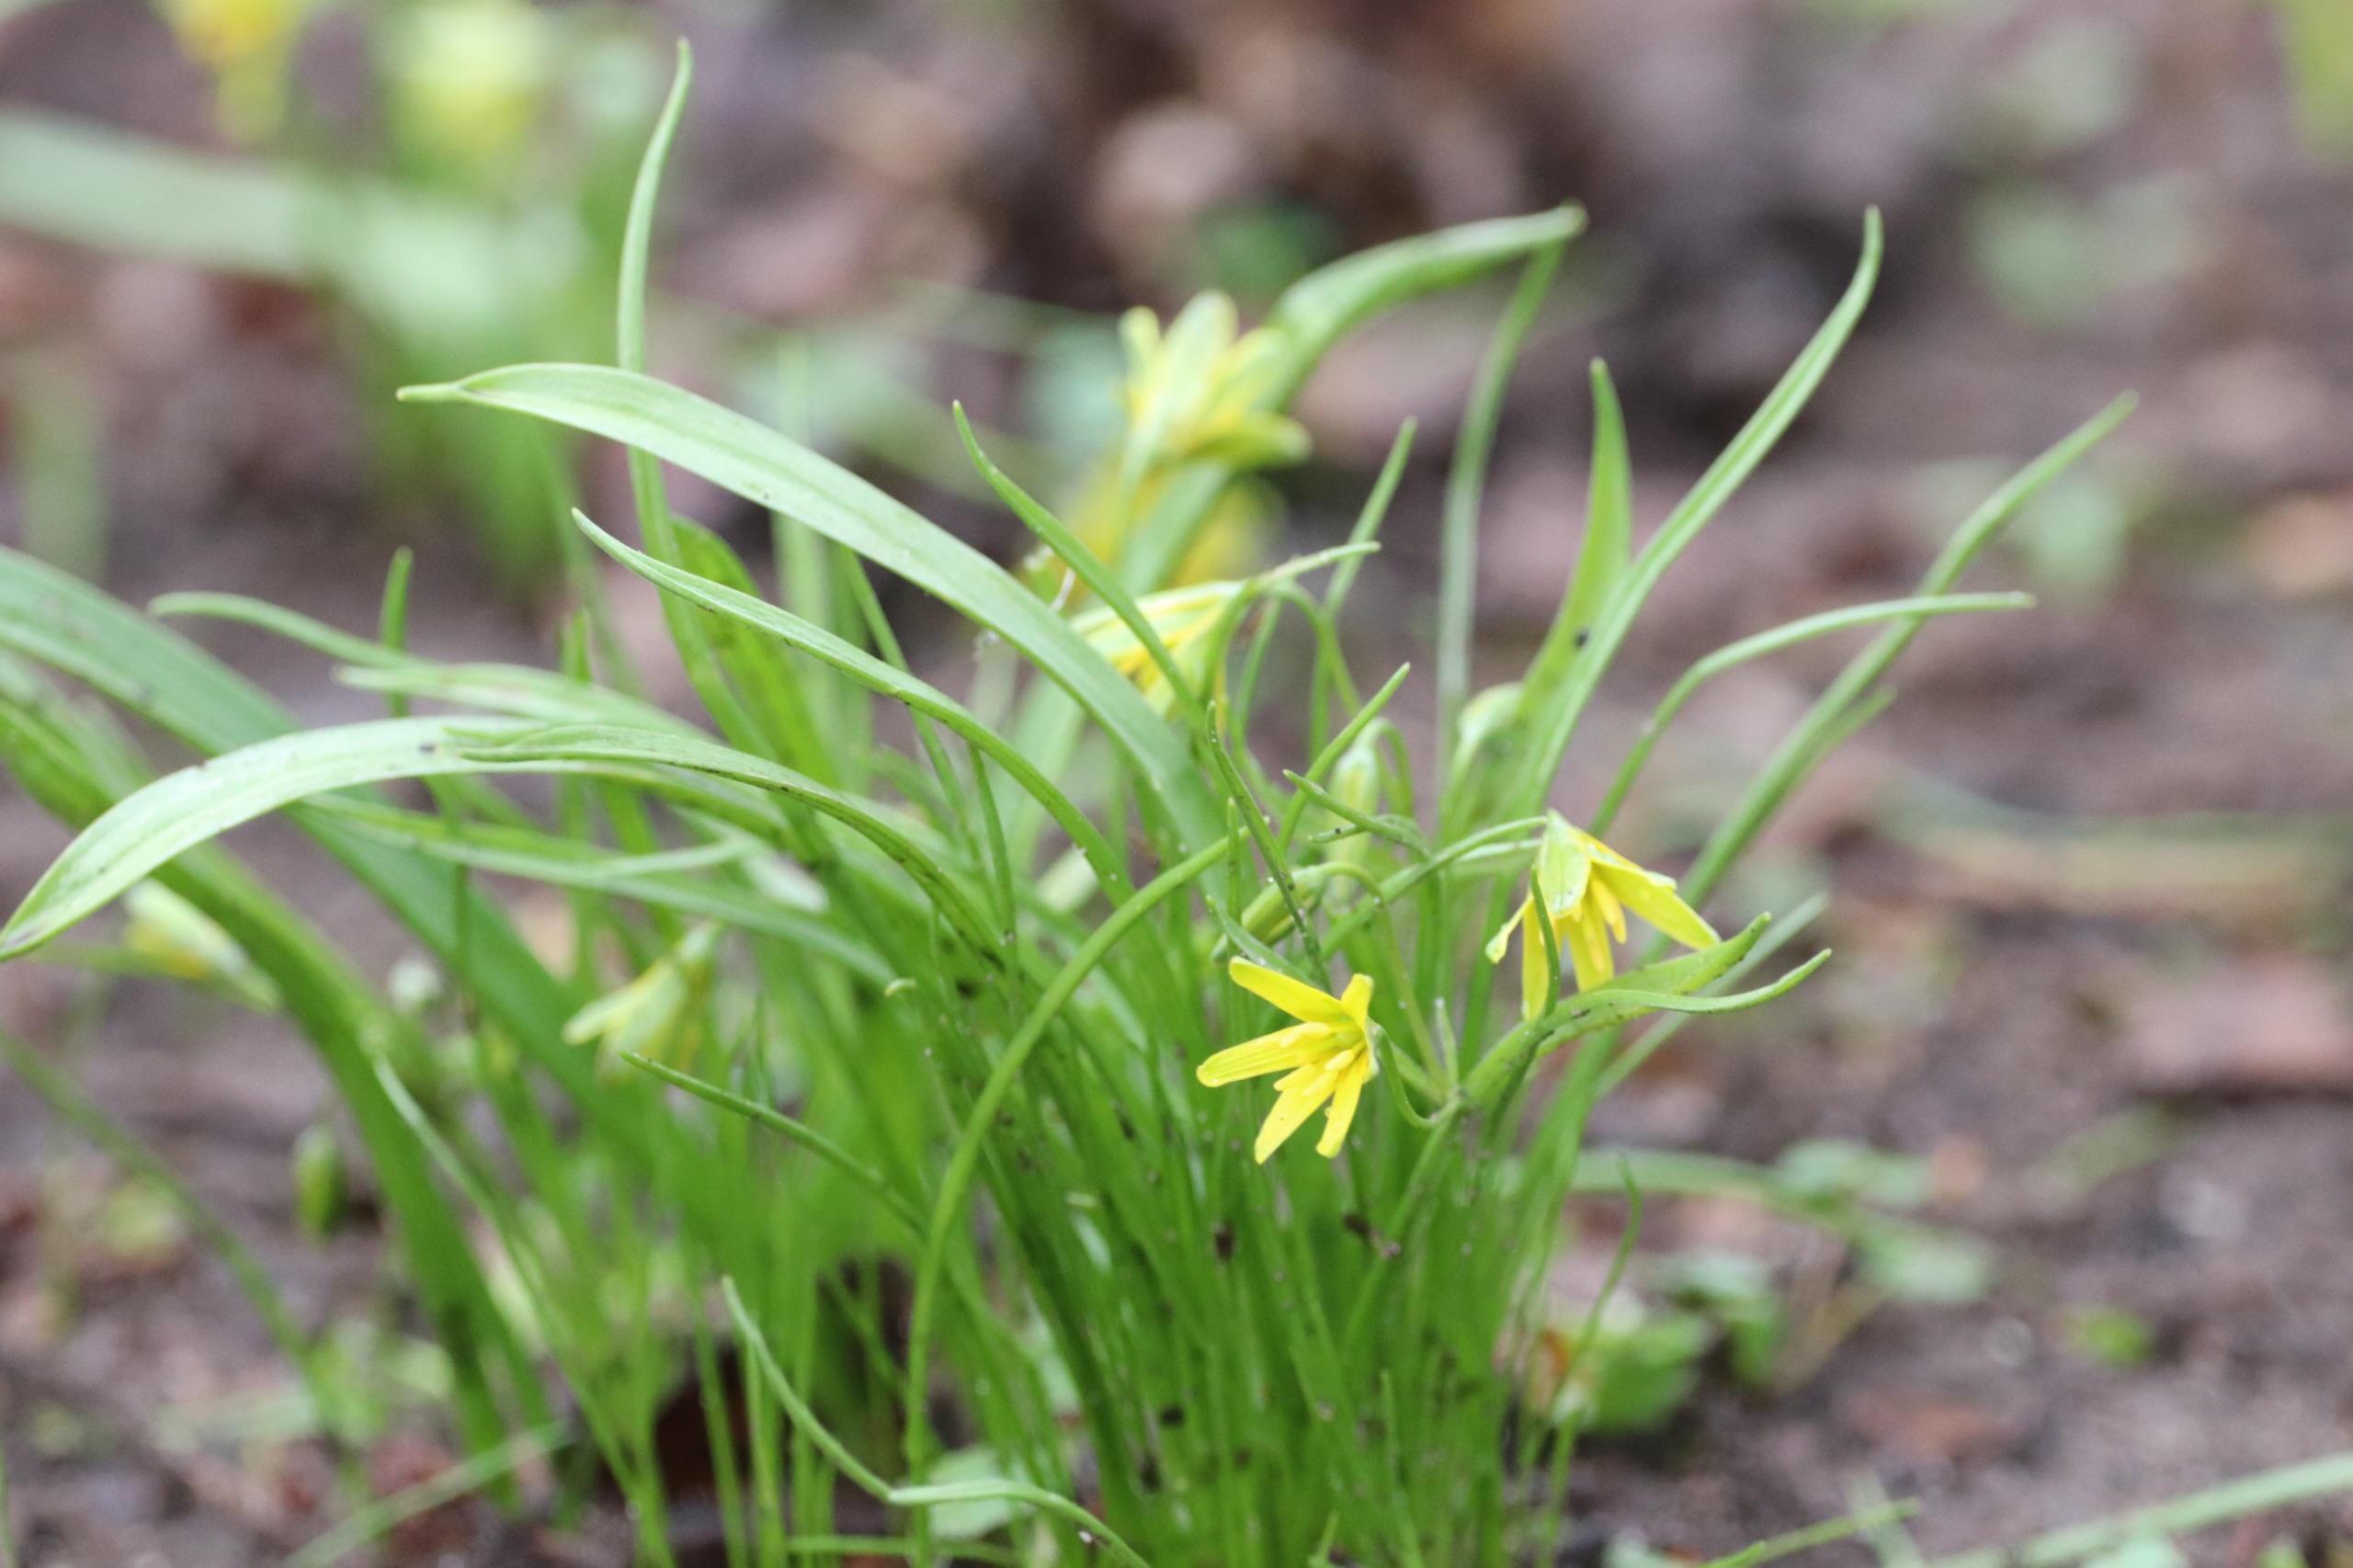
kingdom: Plantae
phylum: Tracheophyta
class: Liliopsida
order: Liliales
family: Liliaceae
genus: Gagea
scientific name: Gagea lutea
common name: Almindelig guldstjerne
